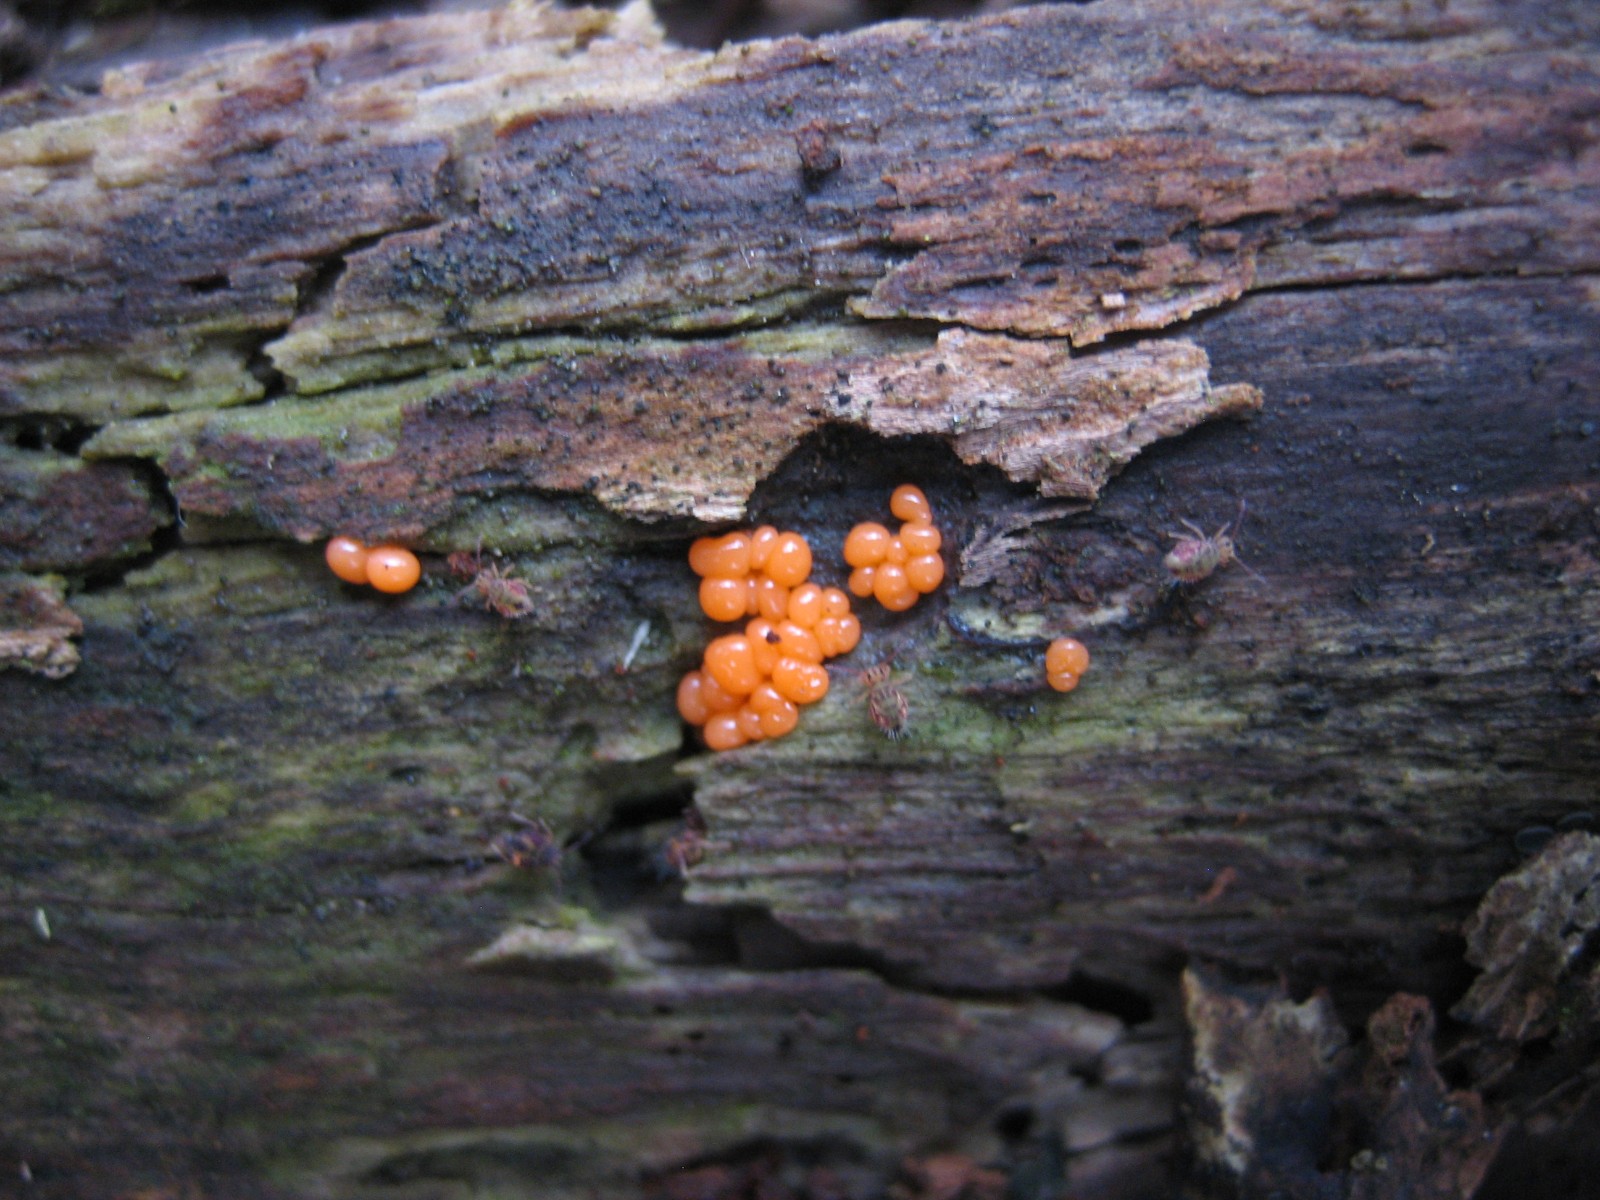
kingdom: Protozoa
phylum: Mycetozoa
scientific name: Mycetozoa
